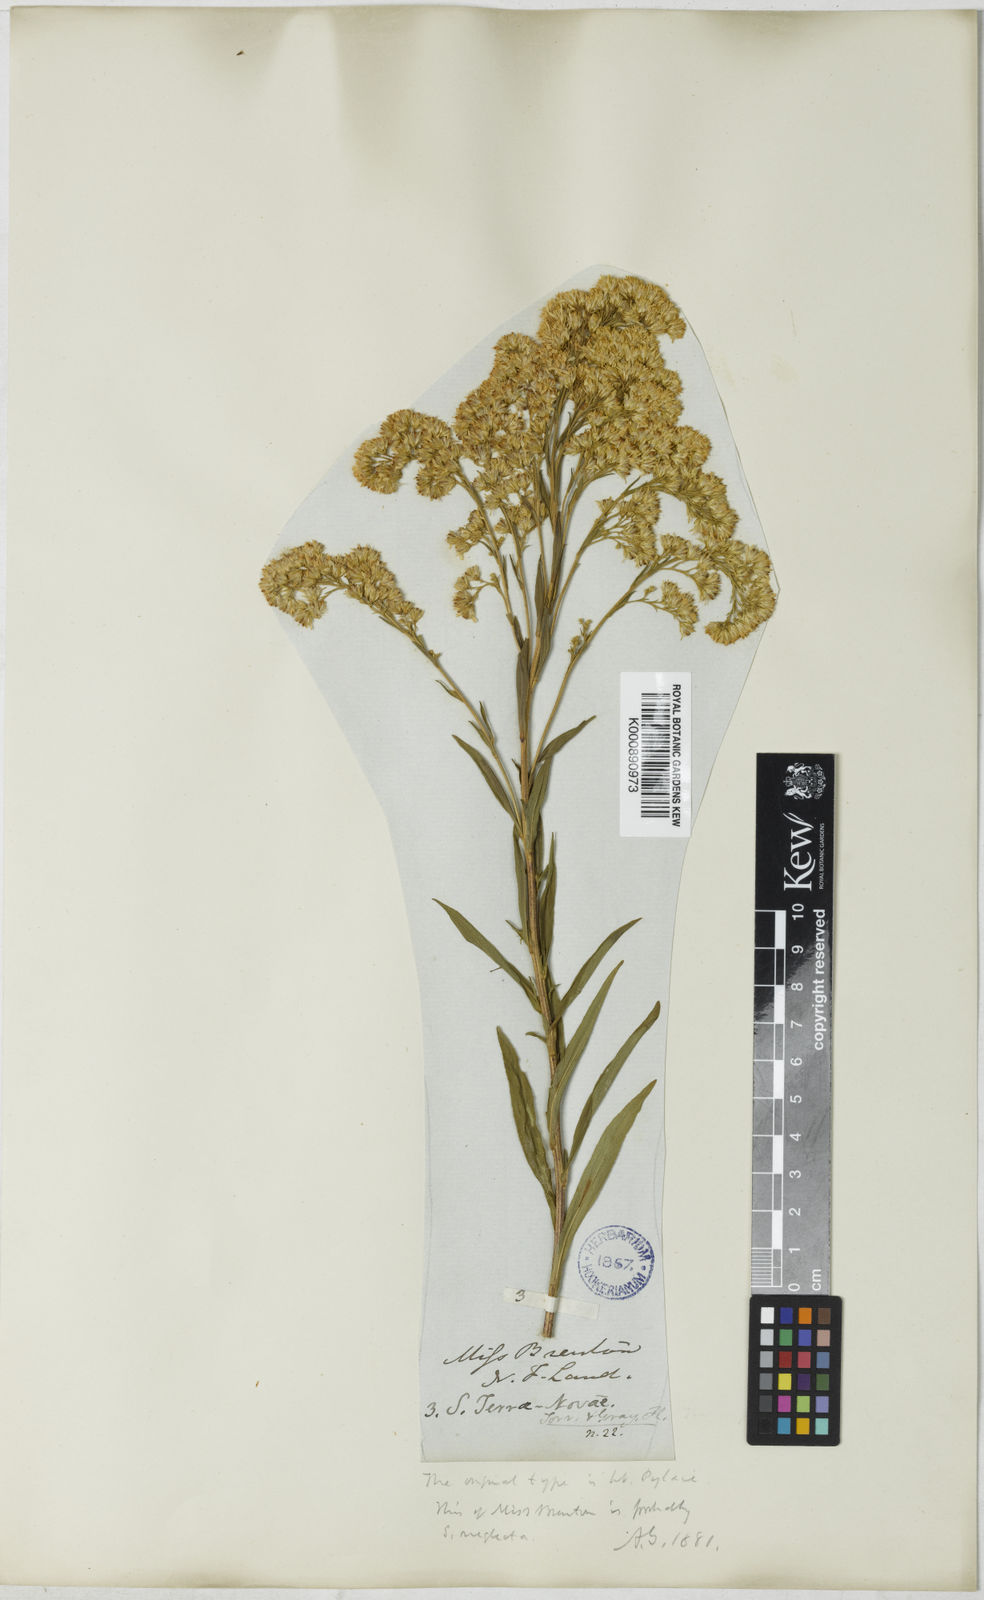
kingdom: Plantae
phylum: Tracheophyta
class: Magnoliopsida
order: Asterales
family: Asteraceae
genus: Solidago
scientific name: Solidago juncea
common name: Early goldenrod
